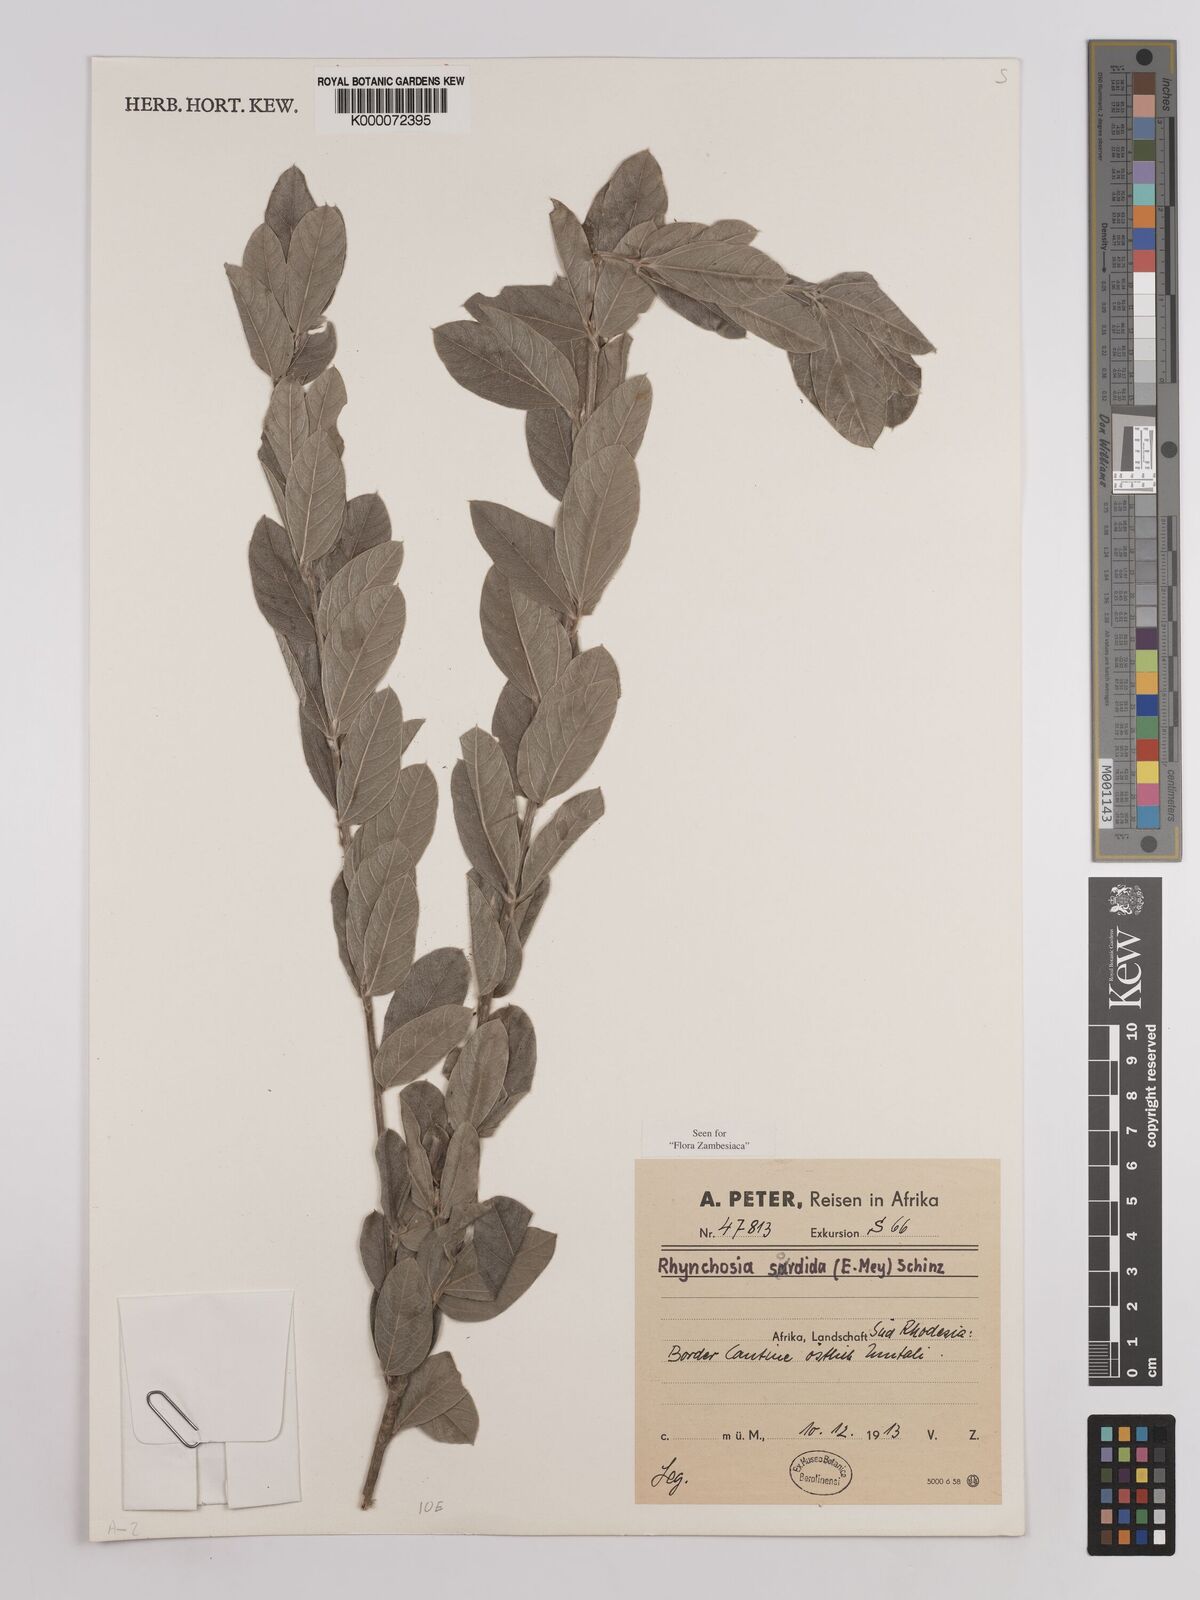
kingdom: Plantae
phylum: Tracheophyta
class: Magnoliopsida
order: Fabales
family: Fabaceae
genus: Rhynchosia
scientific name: Rhynchosia sordida
